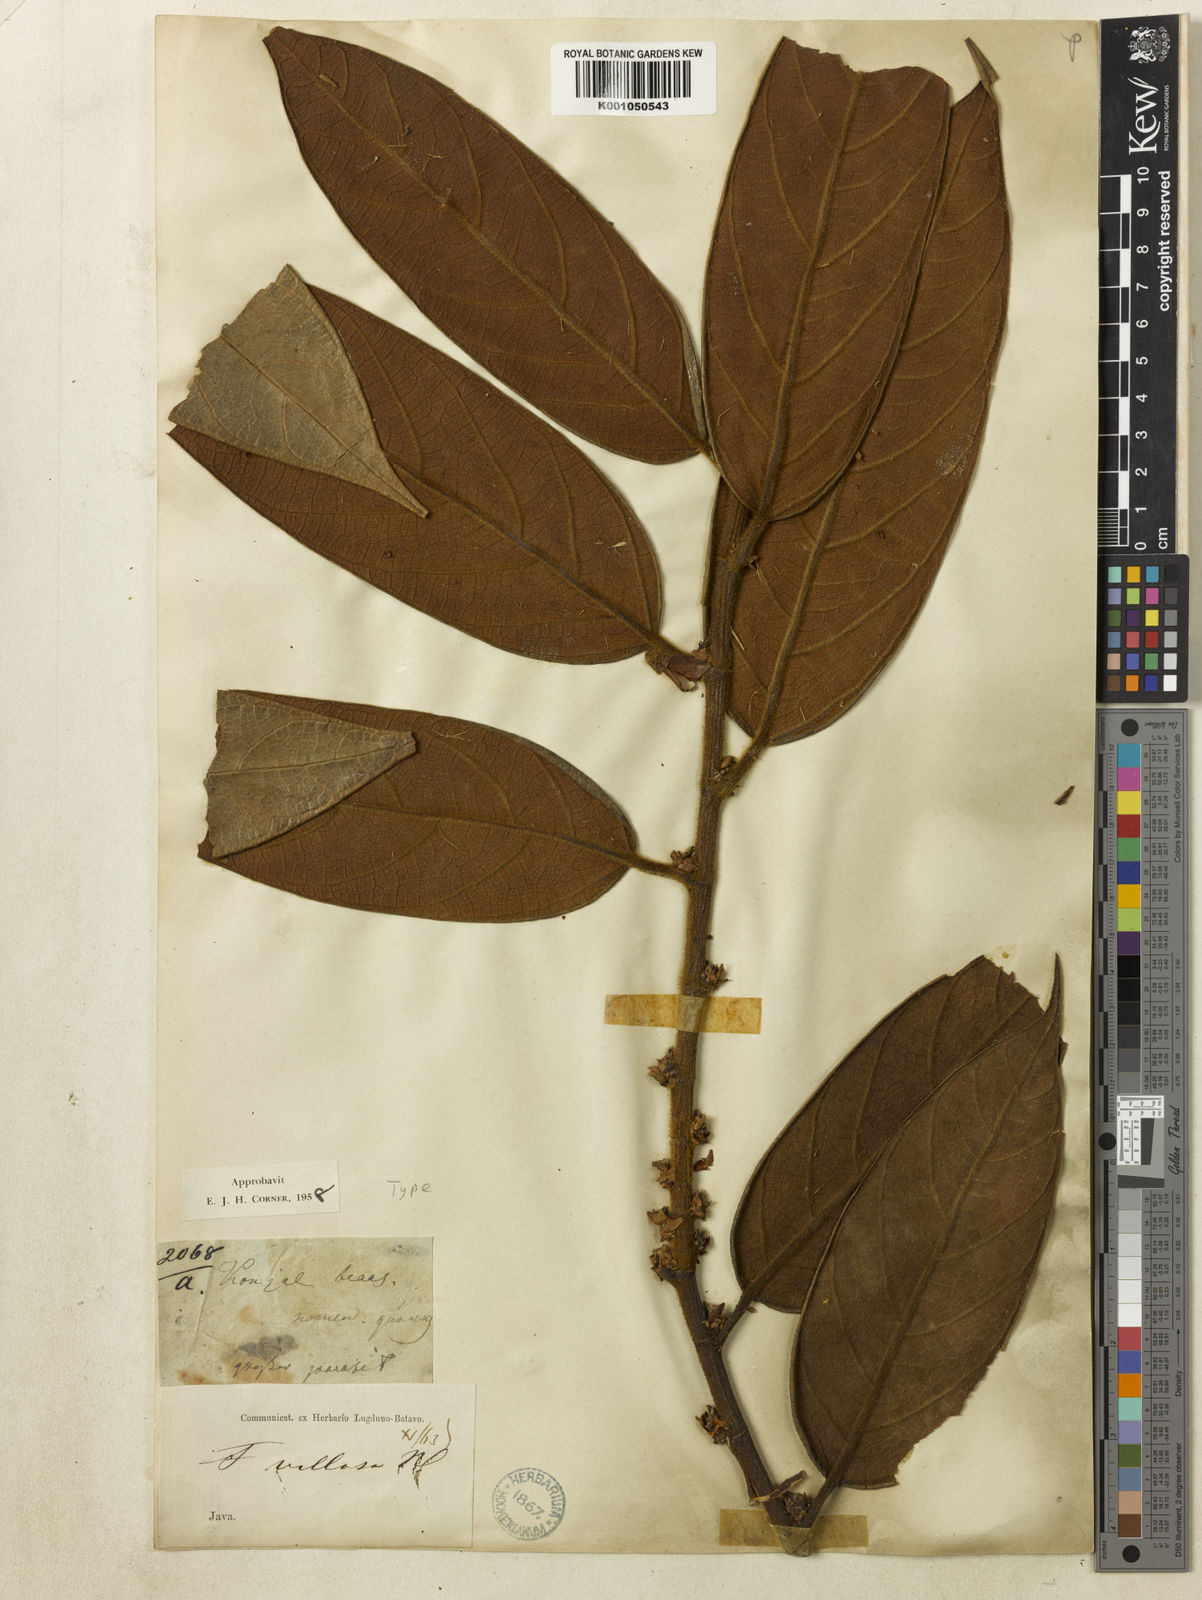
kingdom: Plantae
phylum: Tracheophyta
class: Magnoliopsida
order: Rosales
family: Moraceae
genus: Ficus
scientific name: Ficus villosa
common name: Villous fig
